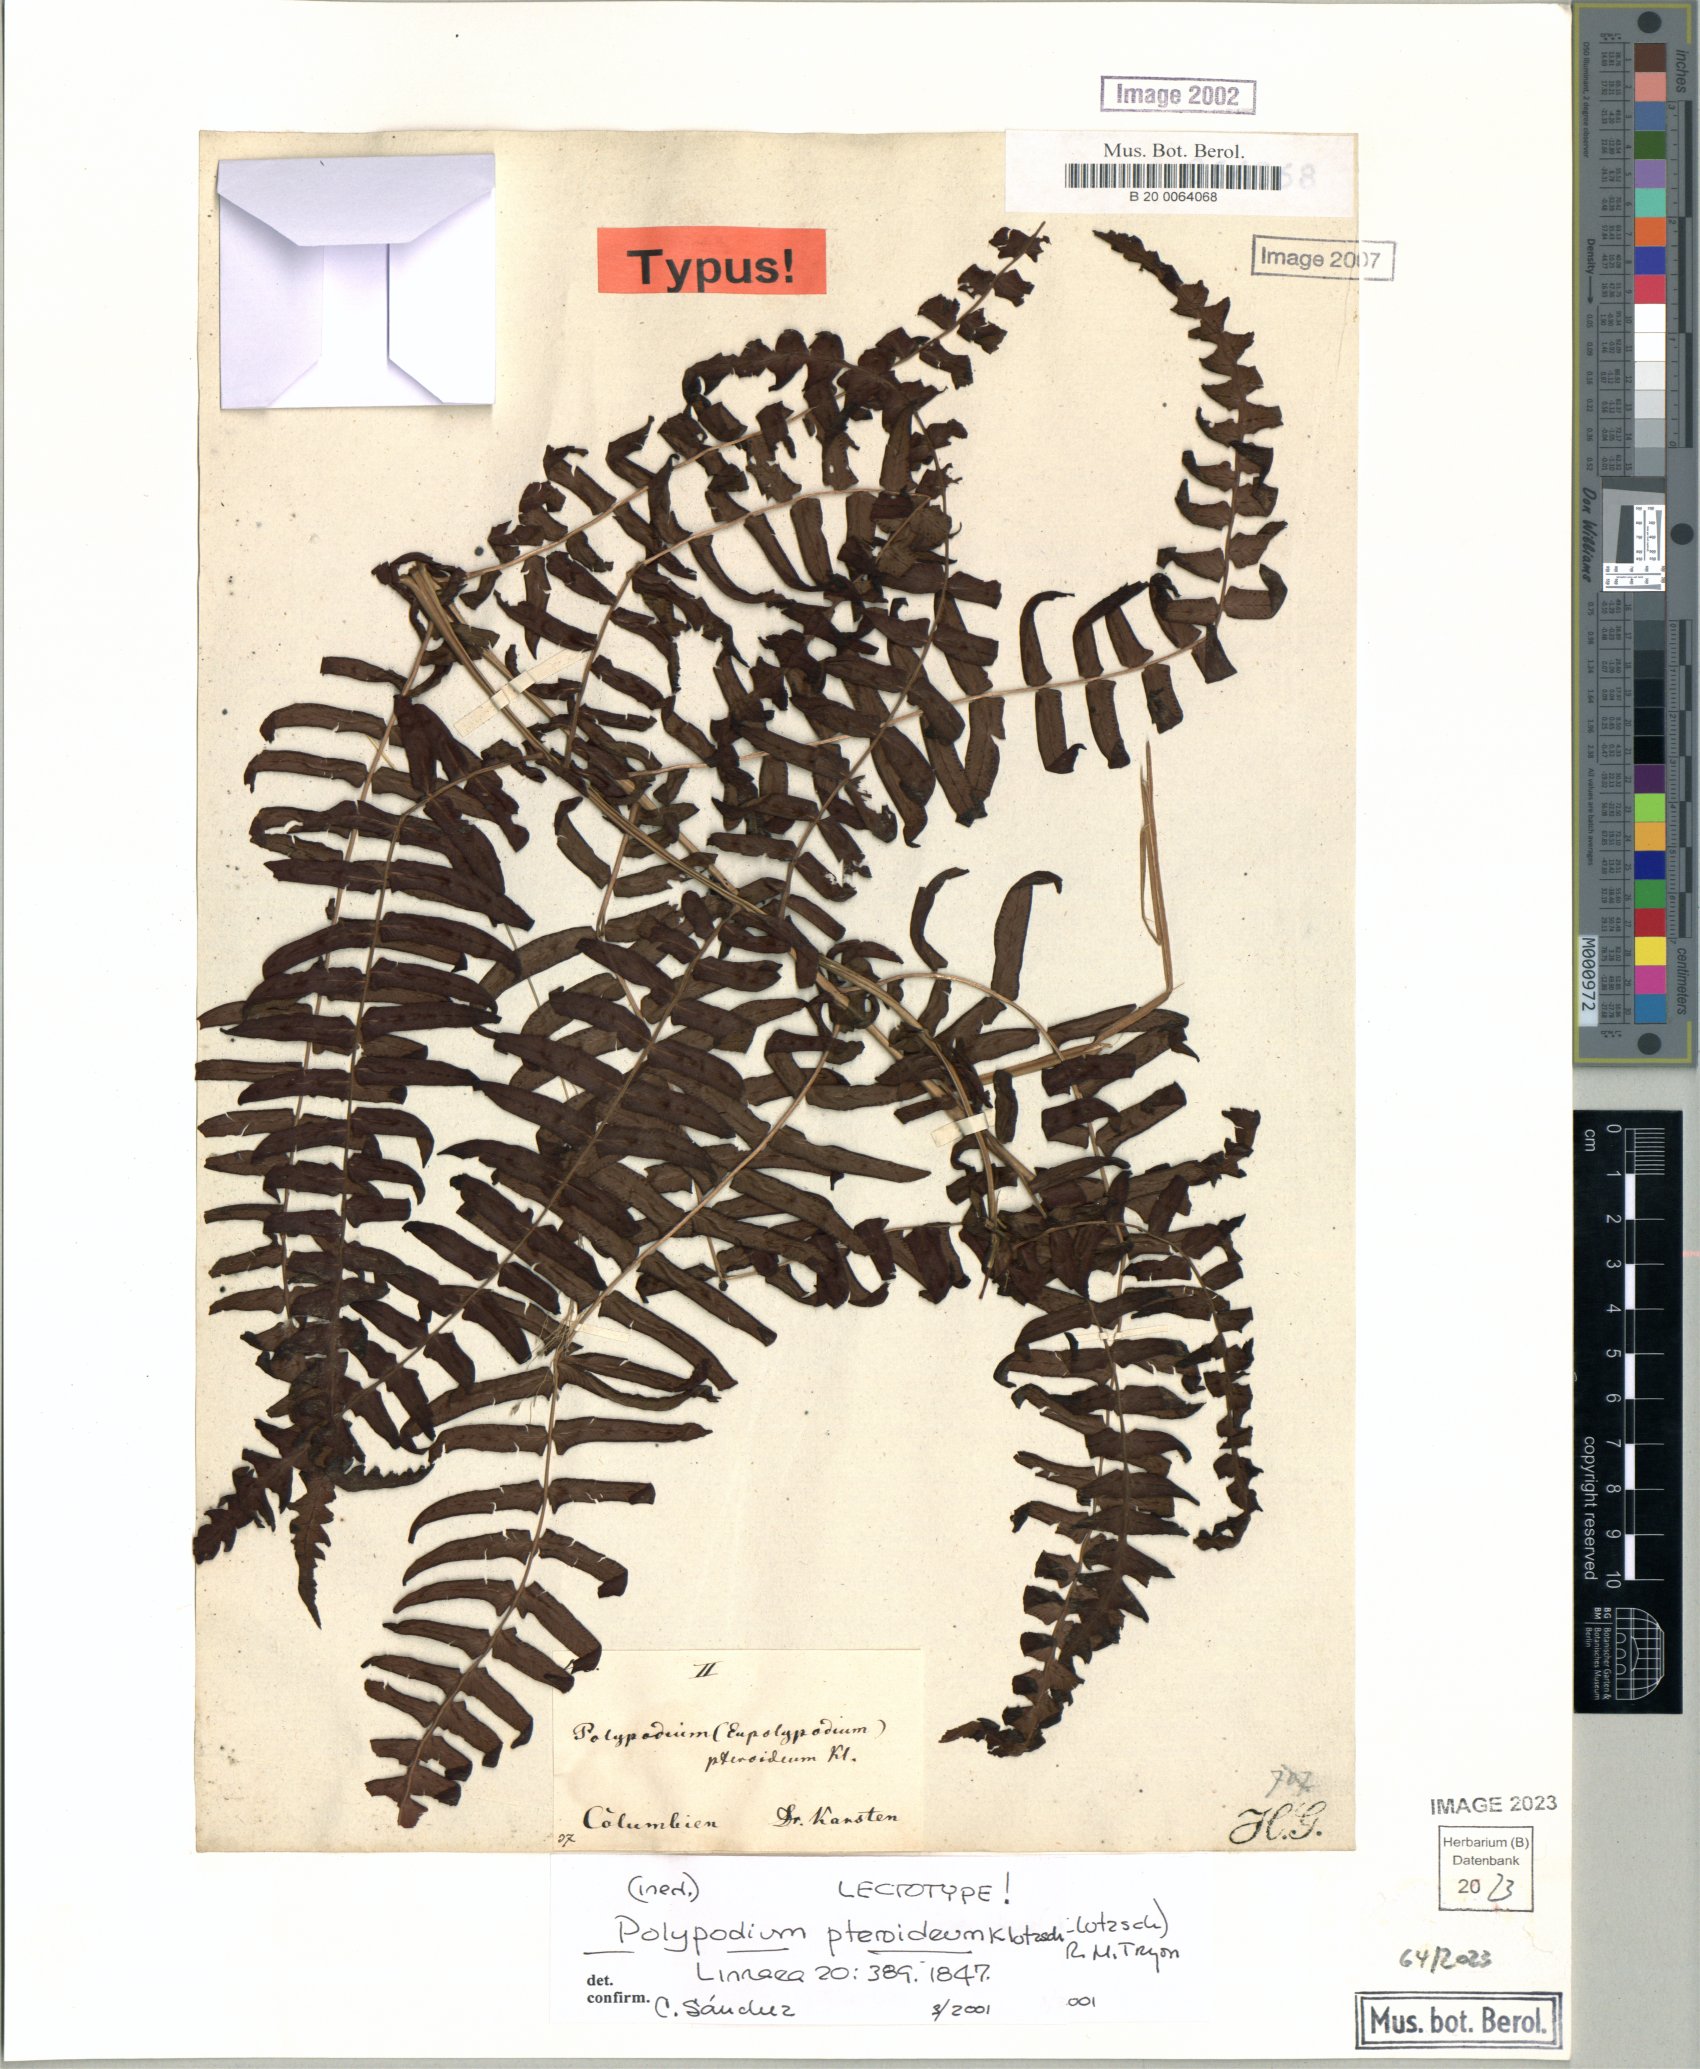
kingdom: Plantae
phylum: Tracheophyta
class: Polypodiopsida
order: Polypodiales
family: Thelypteridaceae
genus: Amauropelta
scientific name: Amauropelta pteroidea
